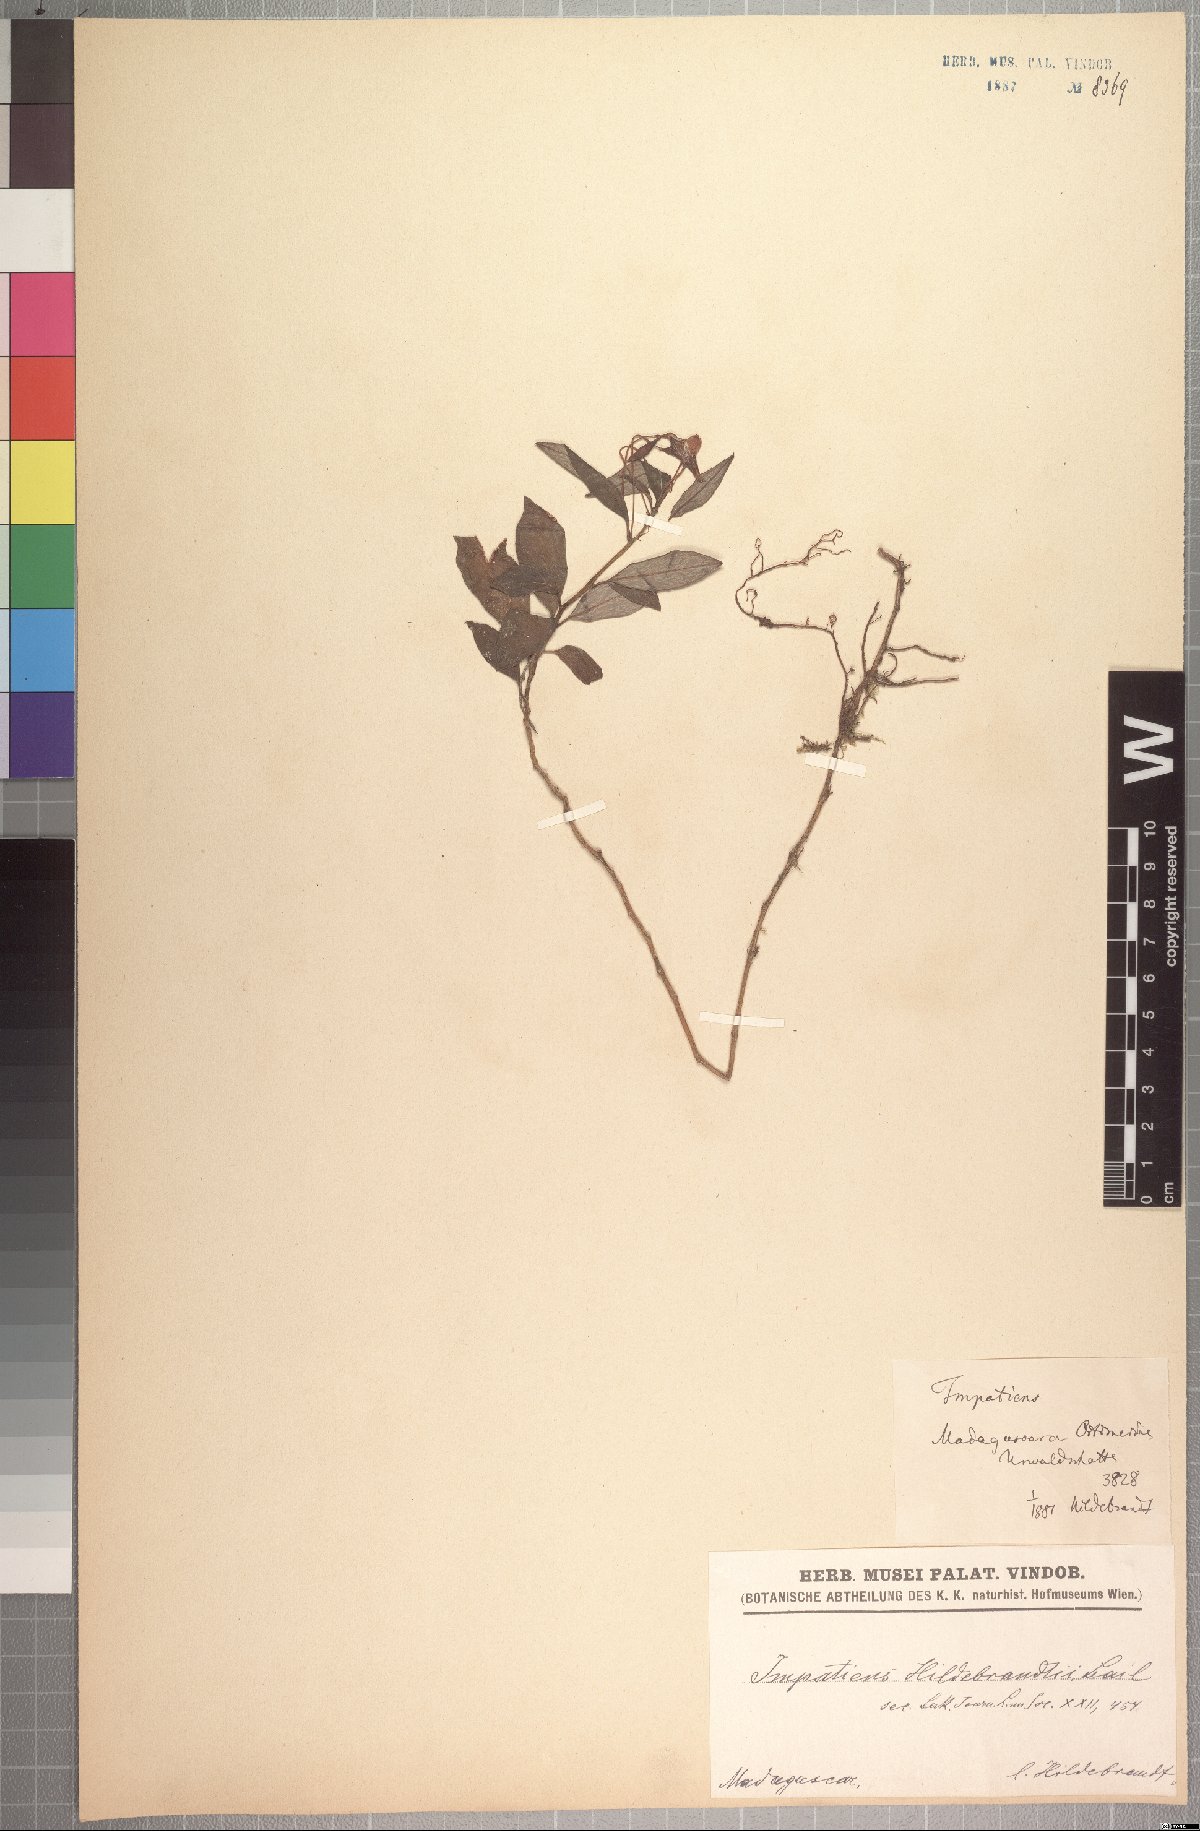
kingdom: Plantae
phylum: Tracheophyta
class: Magnoliopsida
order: Ericales
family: Balsaminaceae
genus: Impatiens
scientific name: Impatiens hildebrandtii
